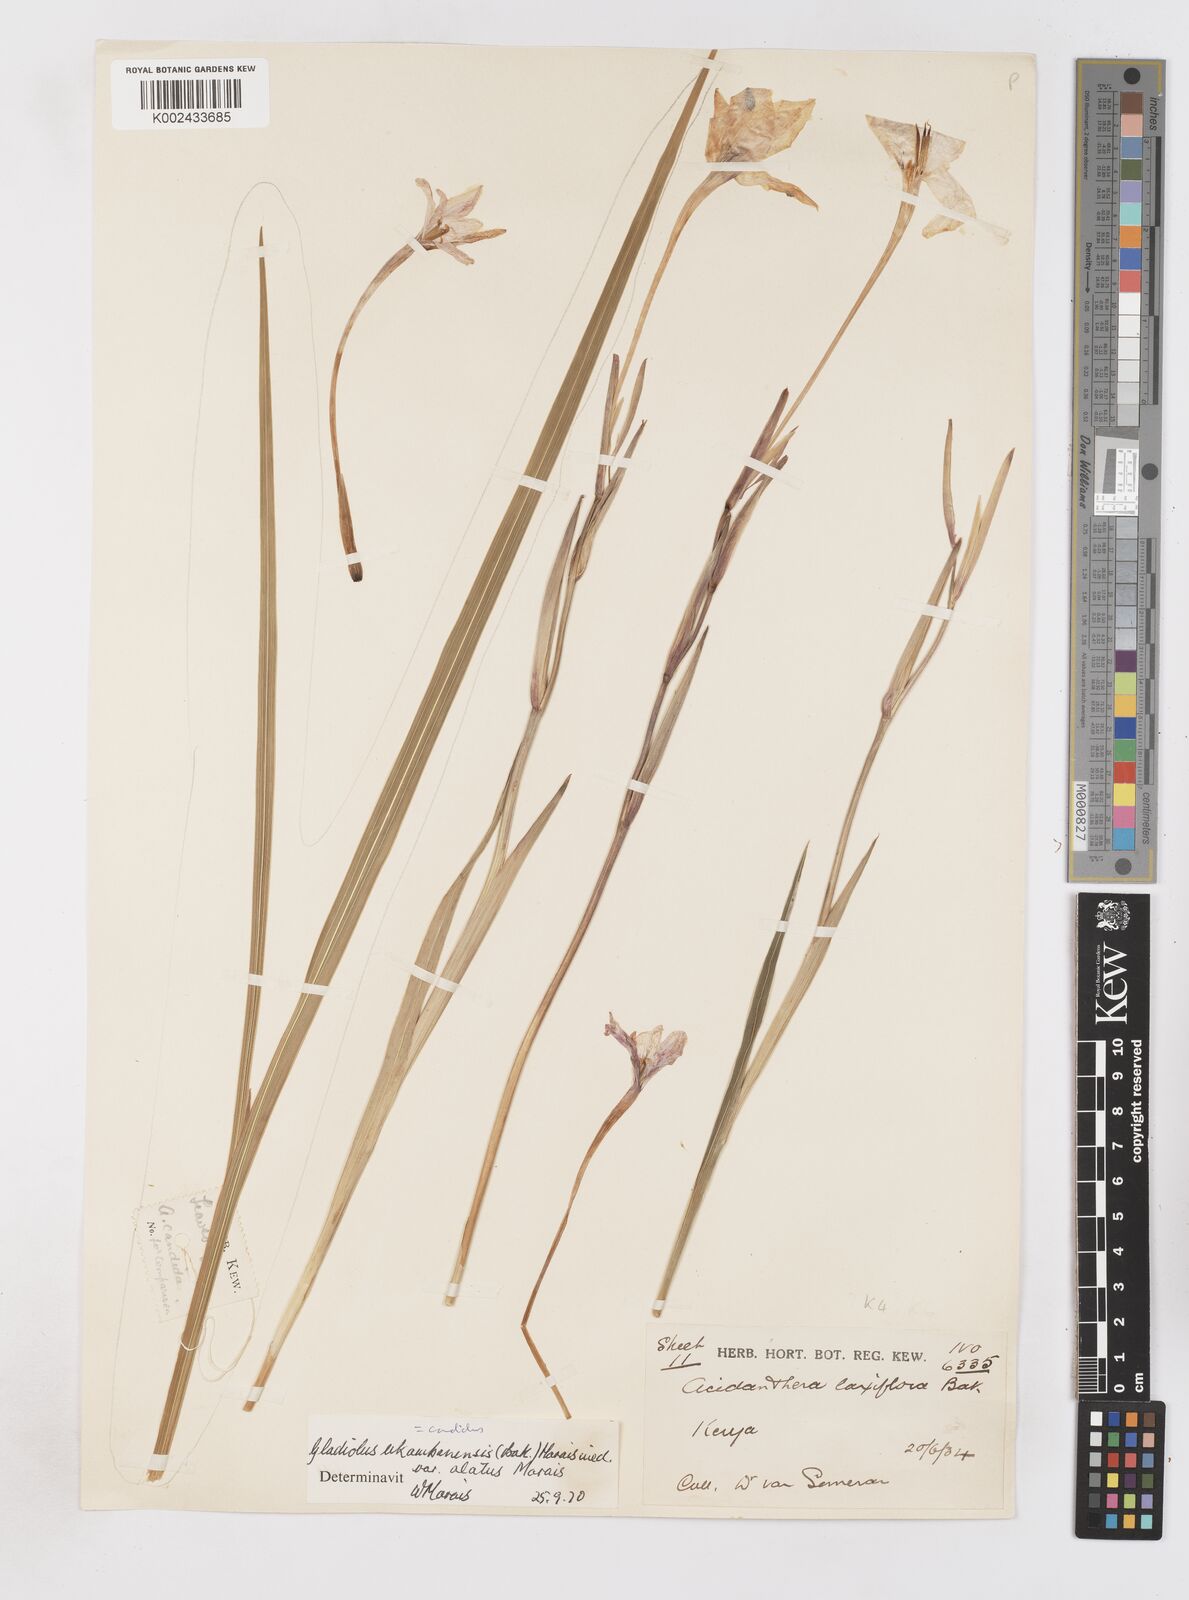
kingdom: Plantae
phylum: Tracheophyta
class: Liliopsida
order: Asparagales
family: Iridaceae
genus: Gladiolus
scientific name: Gladiolus candidus
